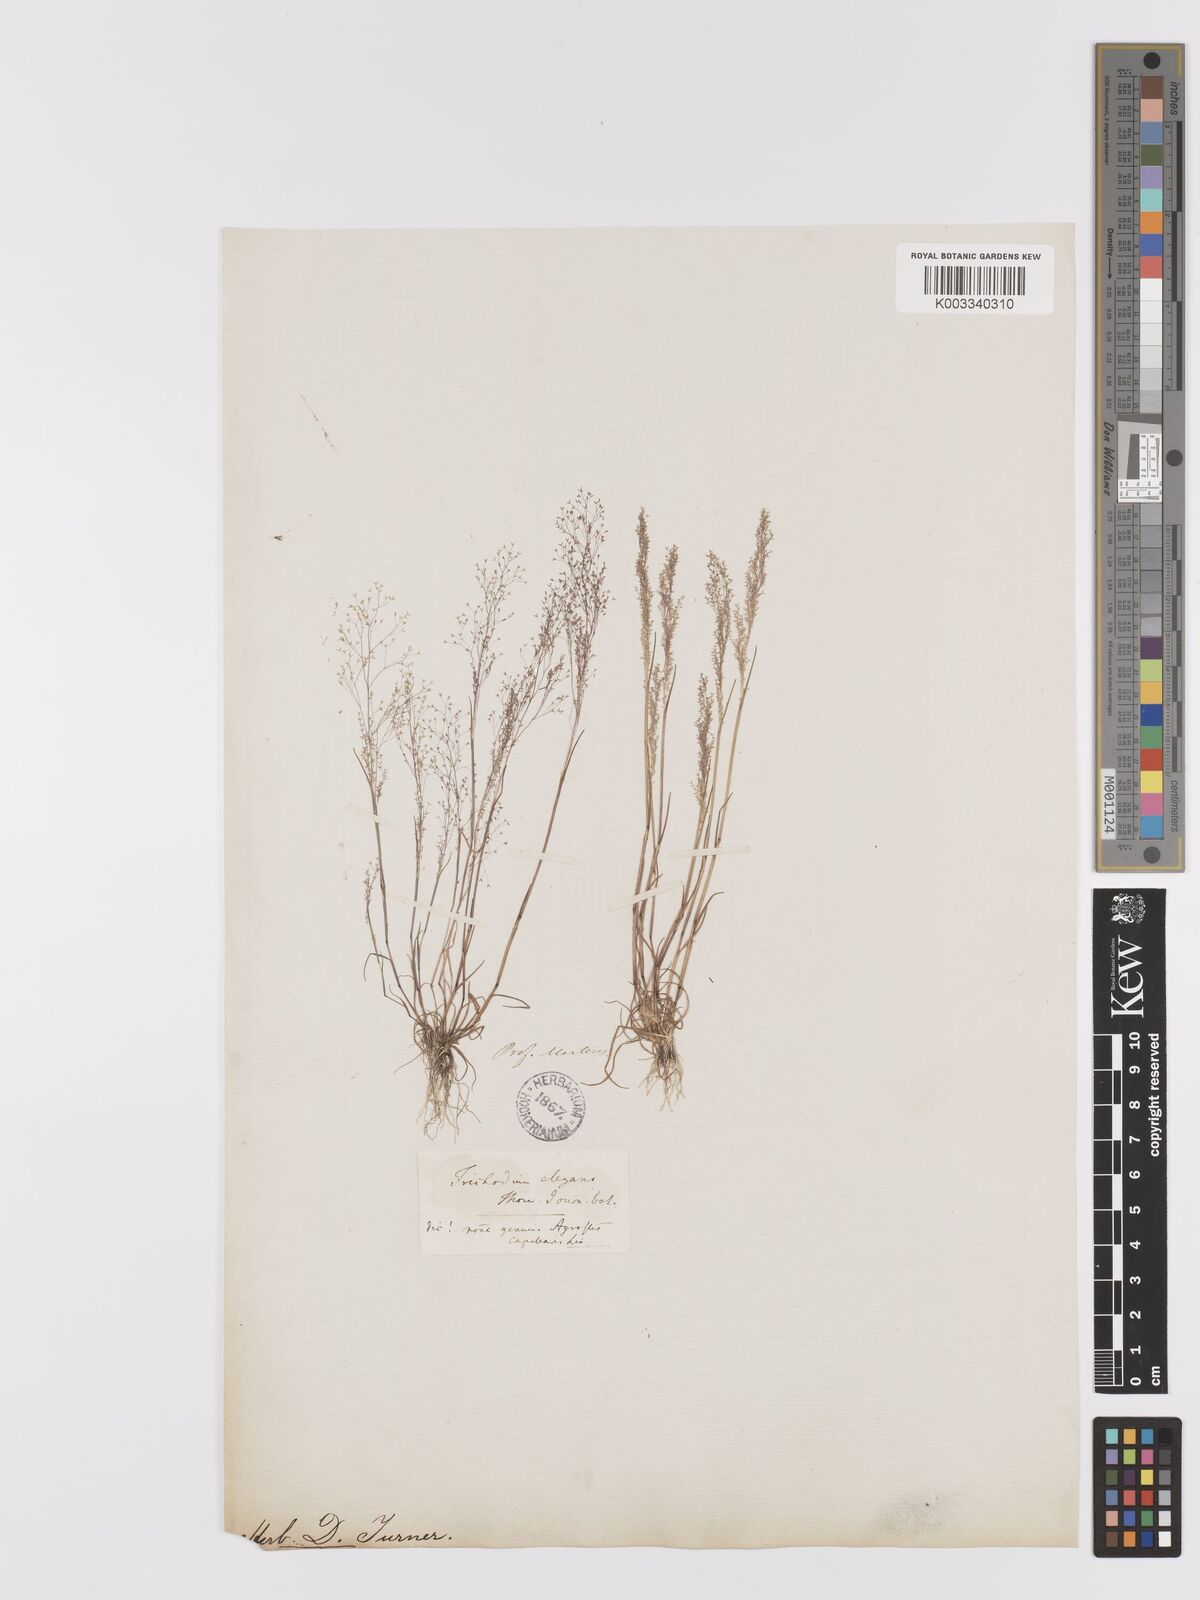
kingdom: Plantae
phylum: Tracheophyta
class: Liliopsida
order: Poales
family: Poaceae
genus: Agrostis
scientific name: Agrostis tenerrima
